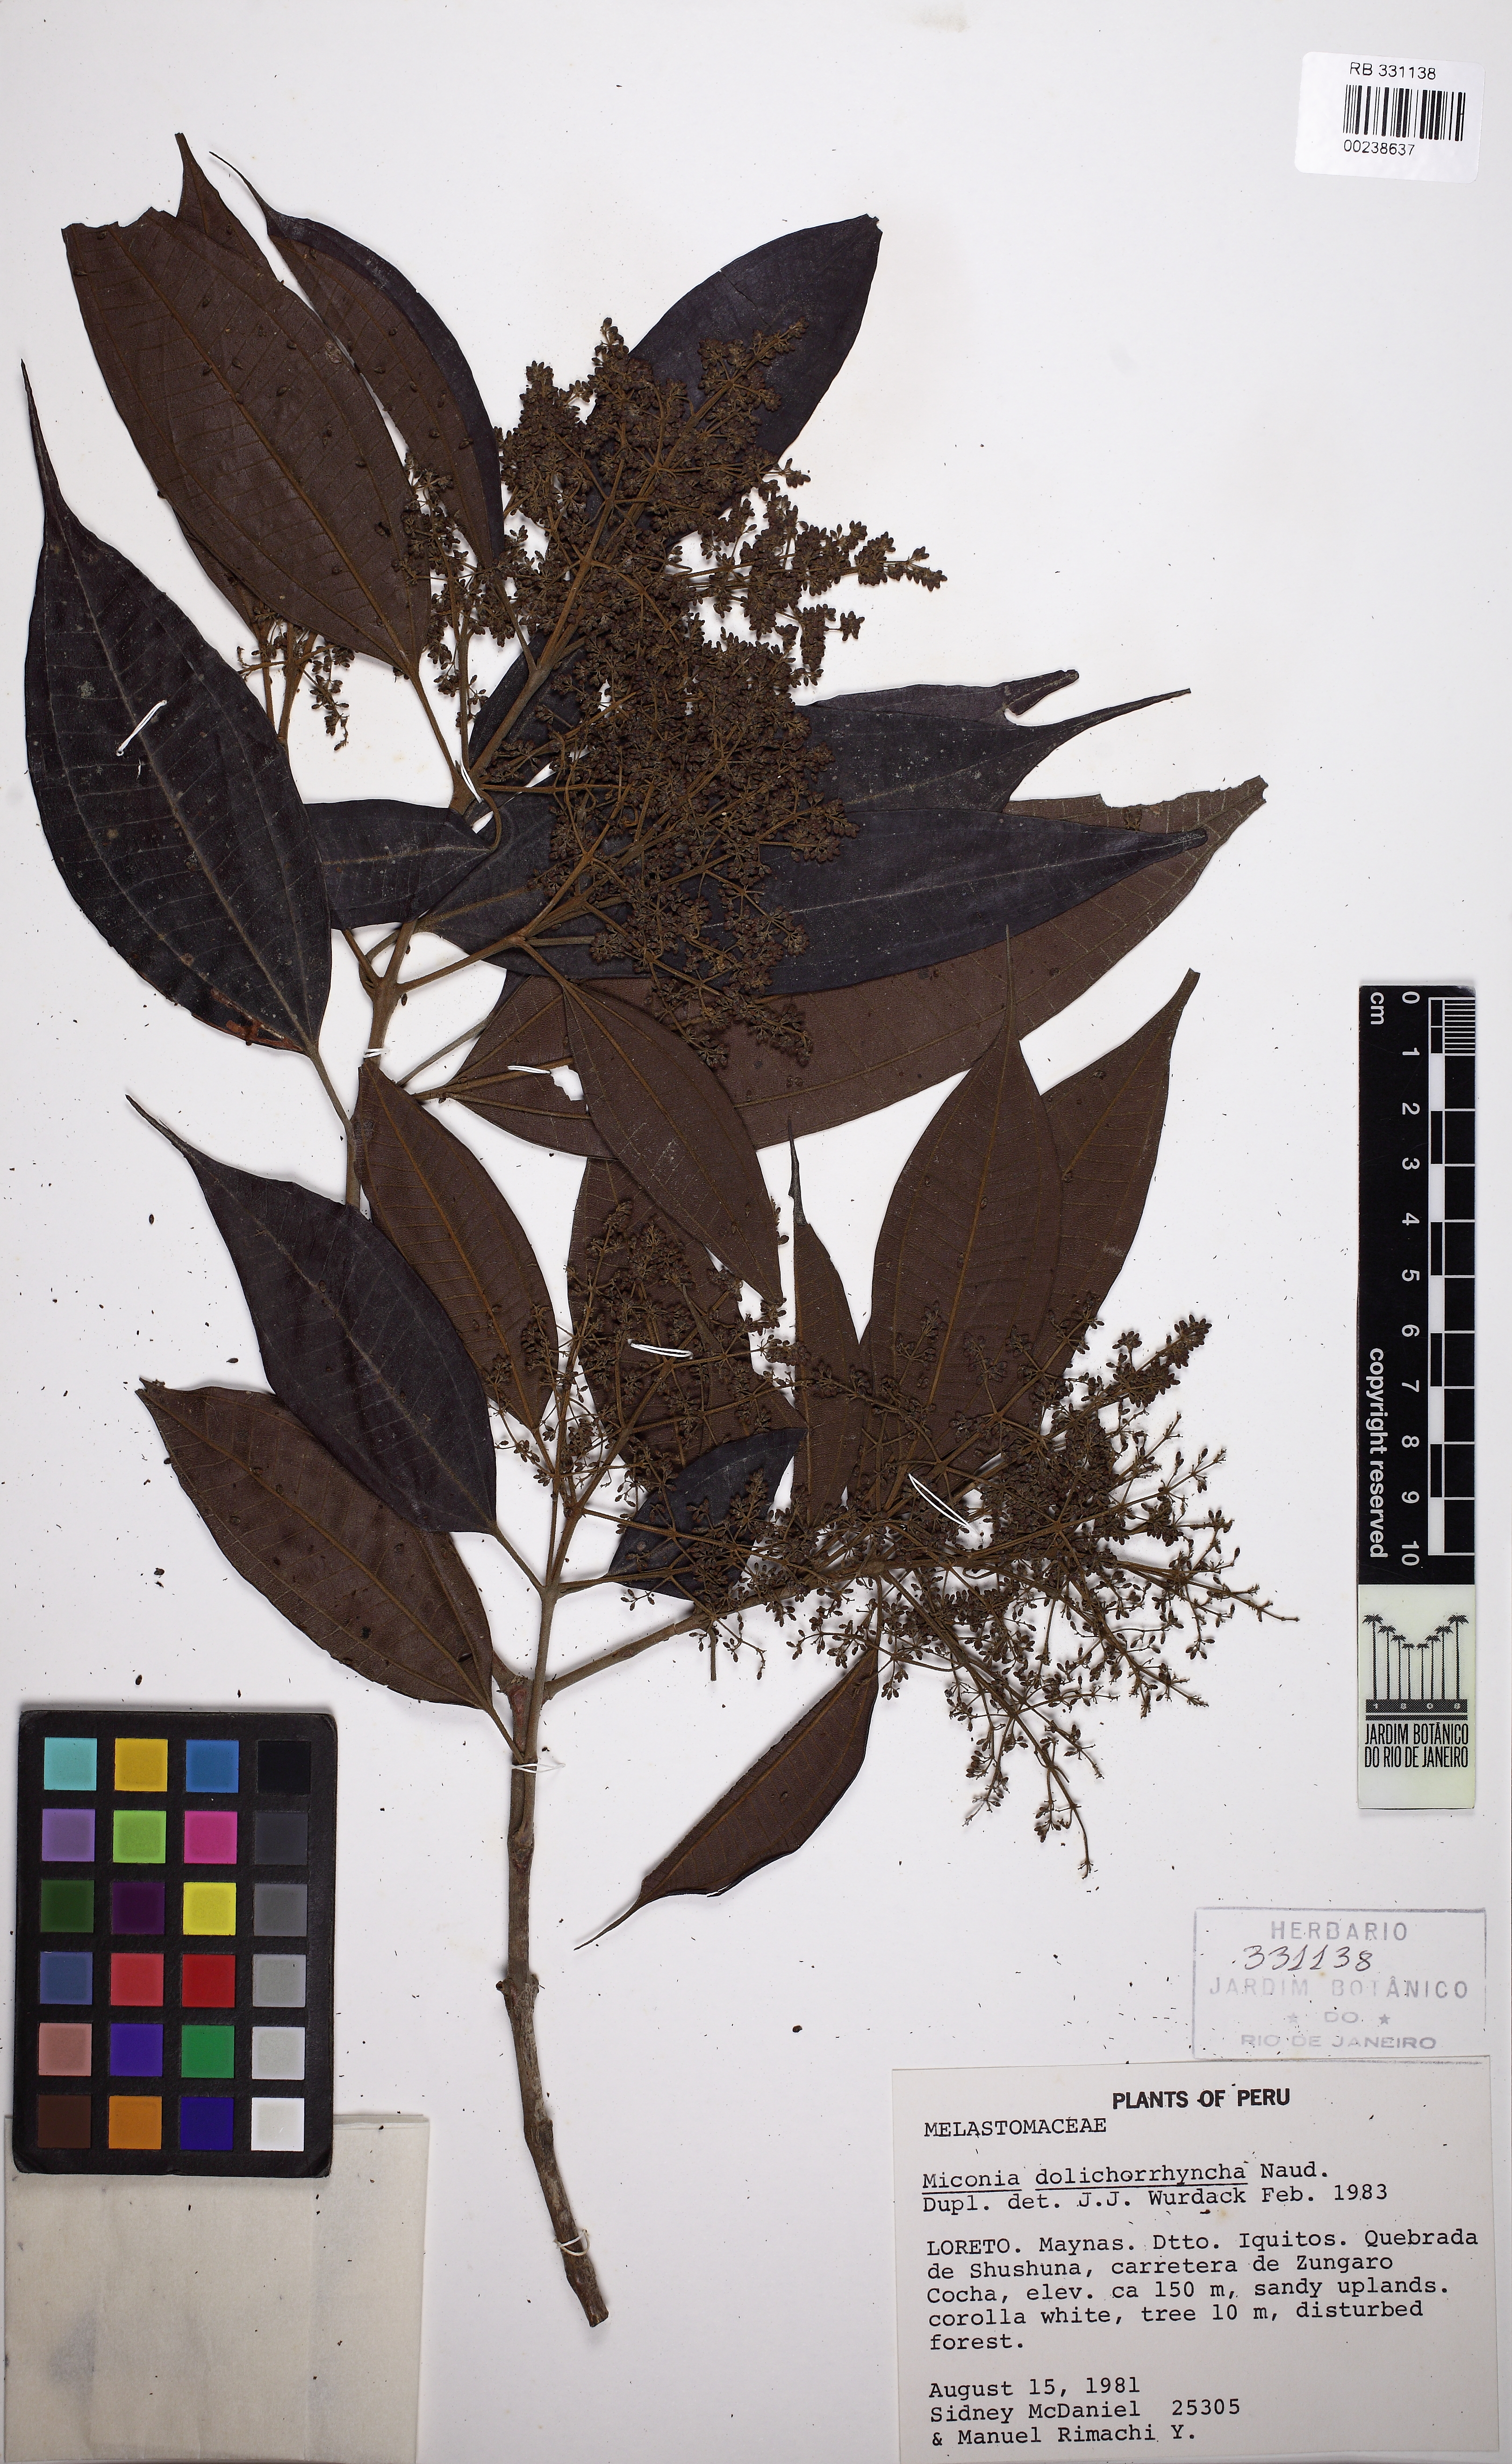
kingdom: Plantae
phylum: Tracheophyta
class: Magnoliopsida
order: Myrtales
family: Melastomataceae
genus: Miconia
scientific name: Miconia dolichorrhyncha
